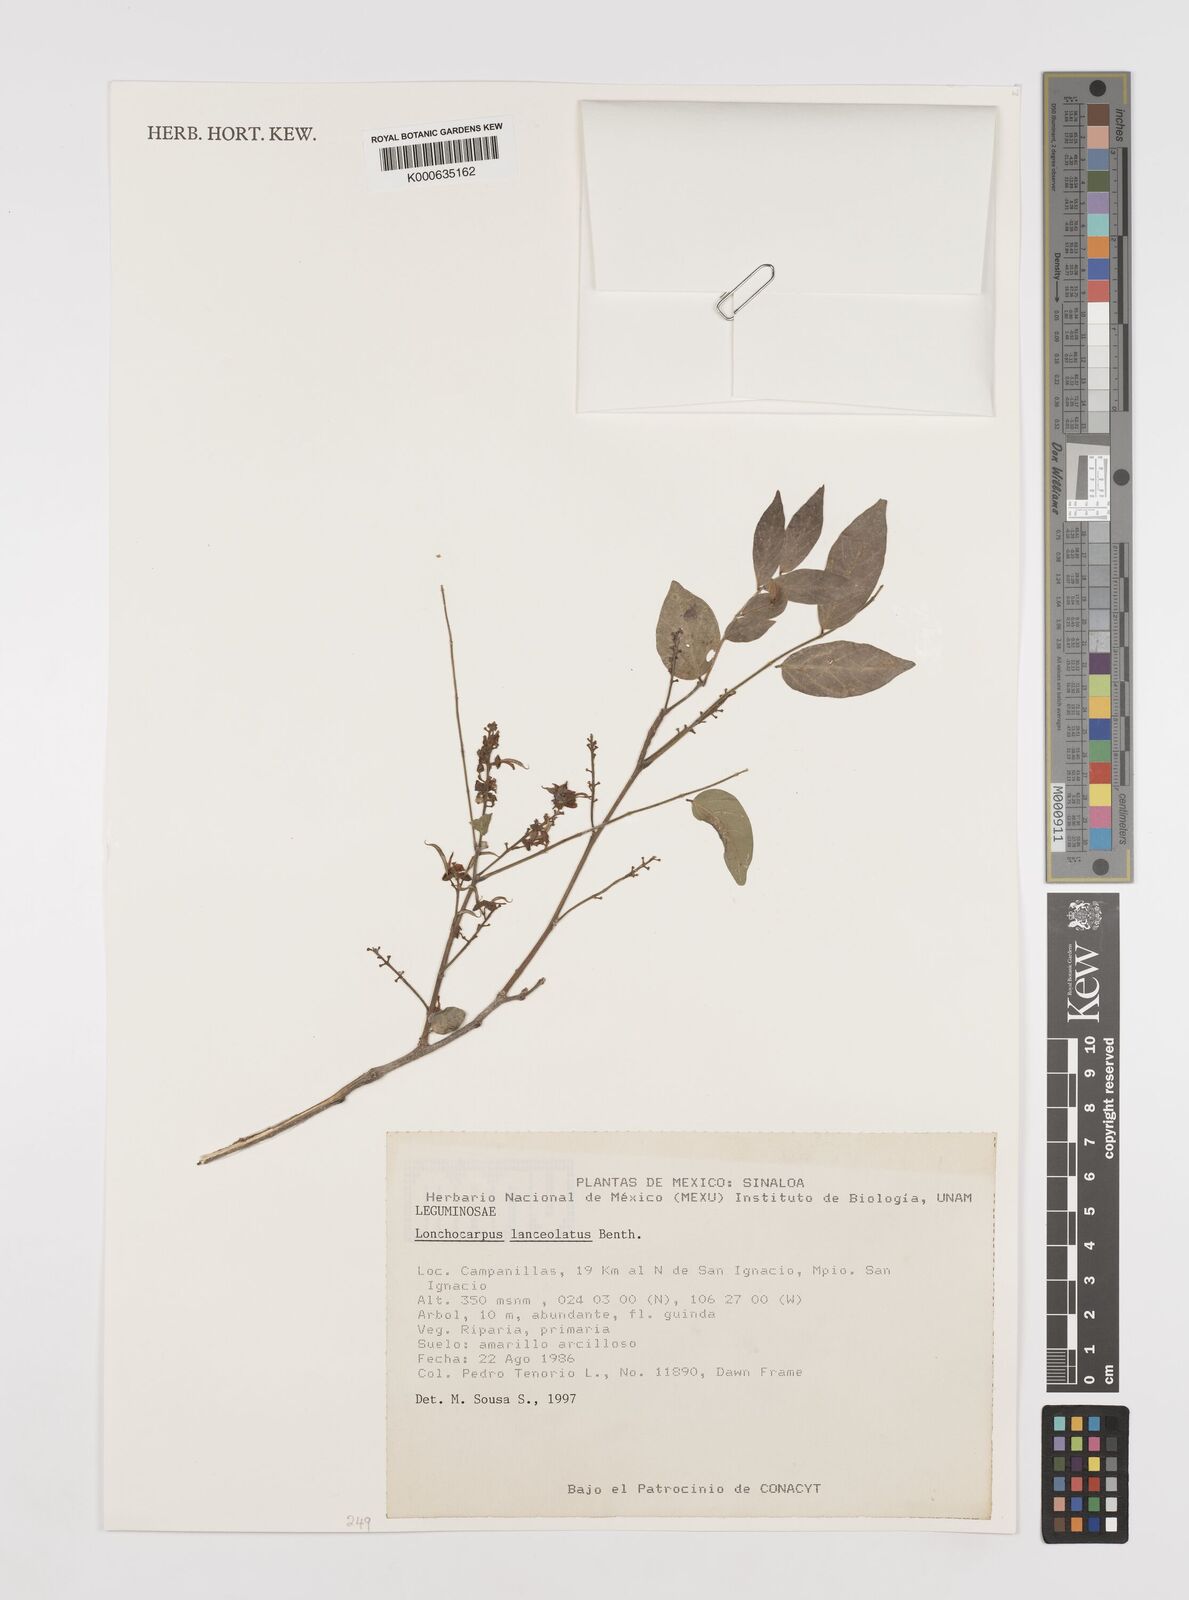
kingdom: Plantae
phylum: Tracheophyta
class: Magnoliopsida
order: Fabales
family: Fabaceae
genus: Lonchocarpus
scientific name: Lonchocarpus lanceolatus
